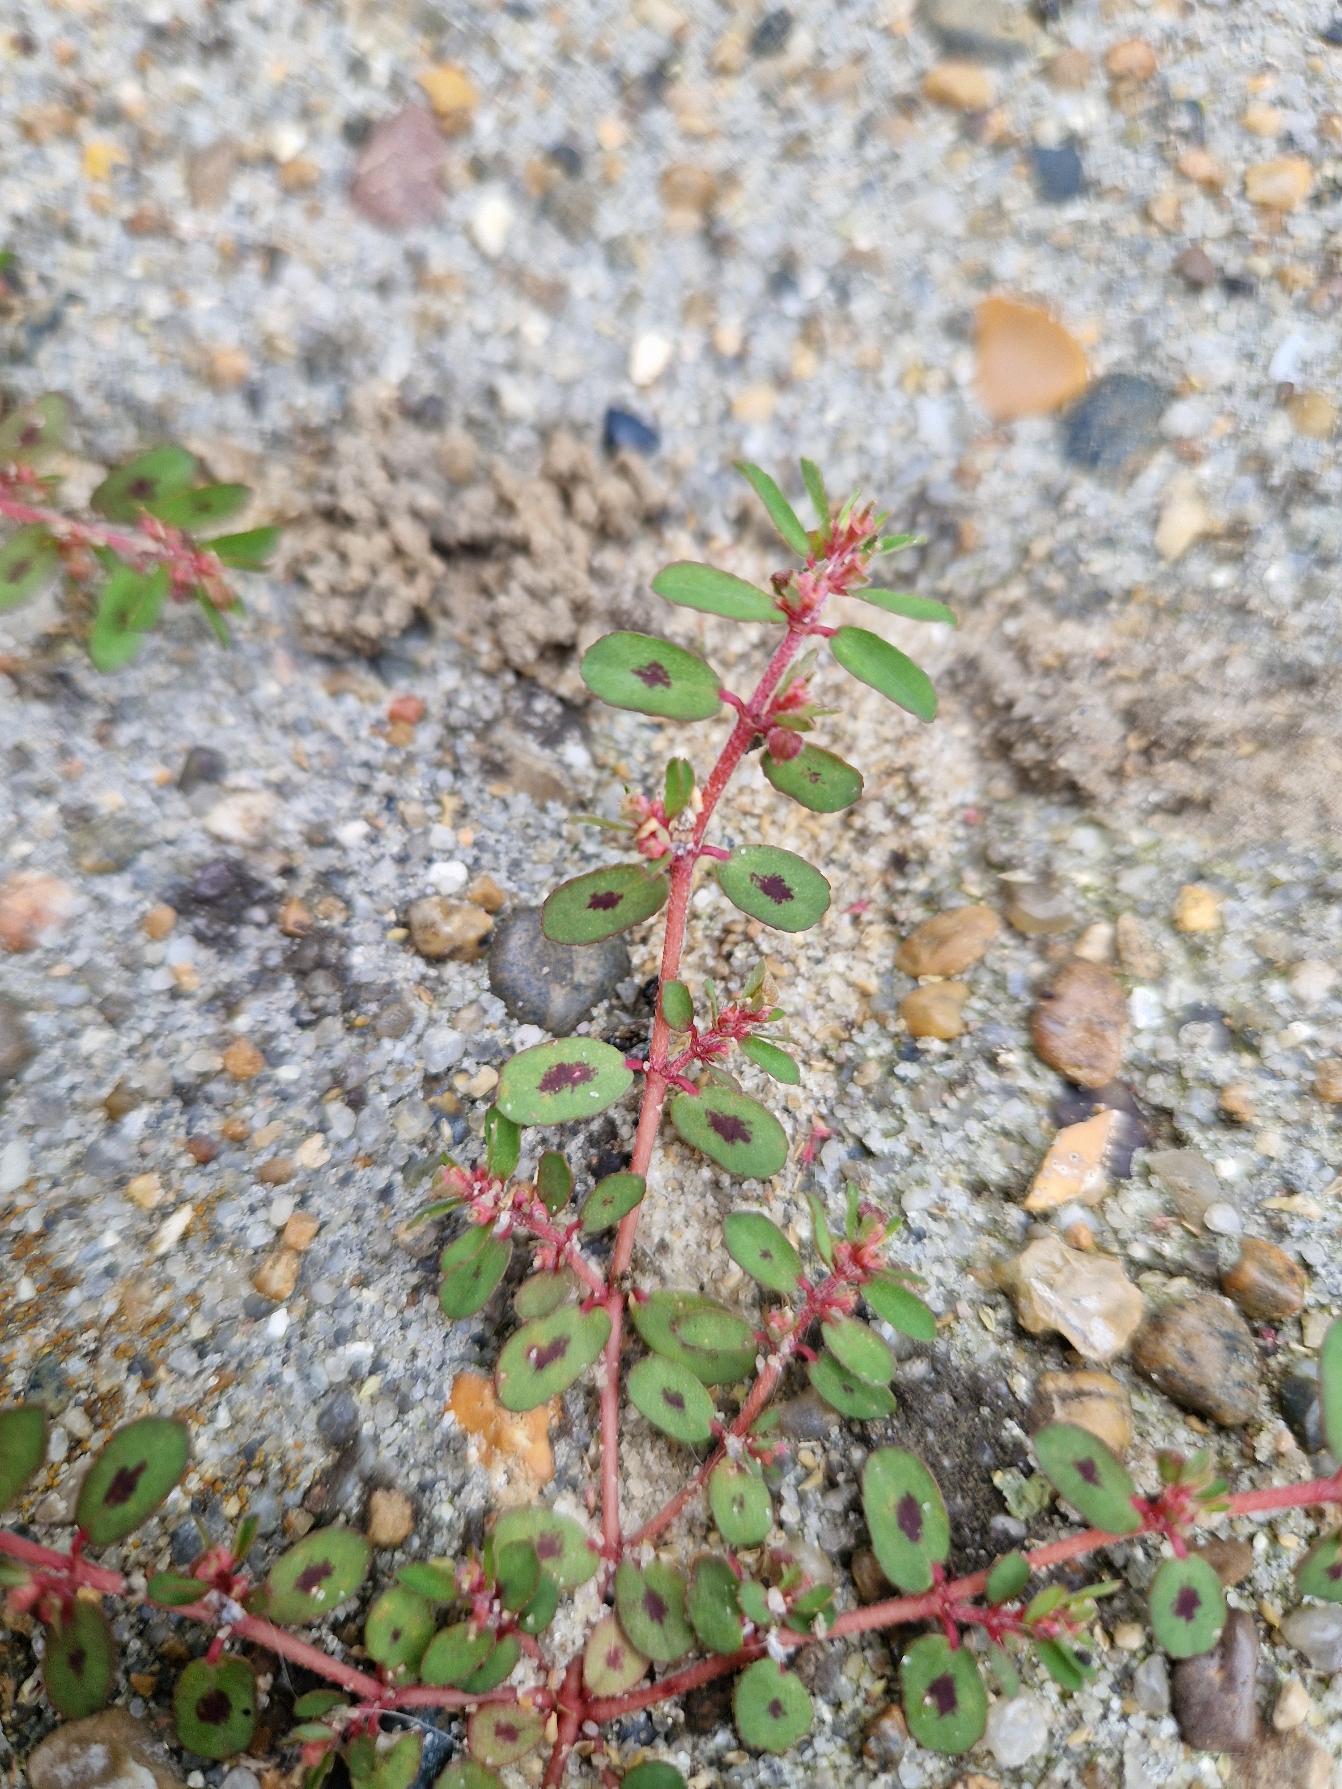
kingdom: Plantae
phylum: Tracheophyta
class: Magnoliopsida
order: Malpighiales
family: Euphorbiaceae
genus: Euphorbia
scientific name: Euphorbia maculata
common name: Plet-vortemælk
